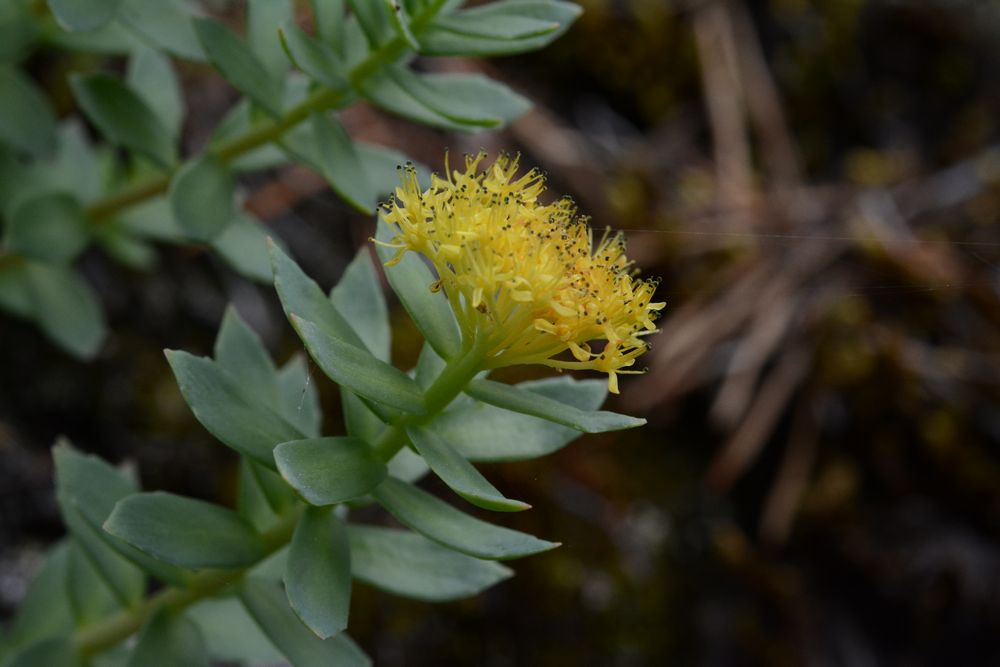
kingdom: Plantae
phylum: Tracheophyta
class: Magnoliopsida
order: Saxifragales
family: Crassulaceae
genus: Rhodiola
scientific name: Rhodiola rosea
